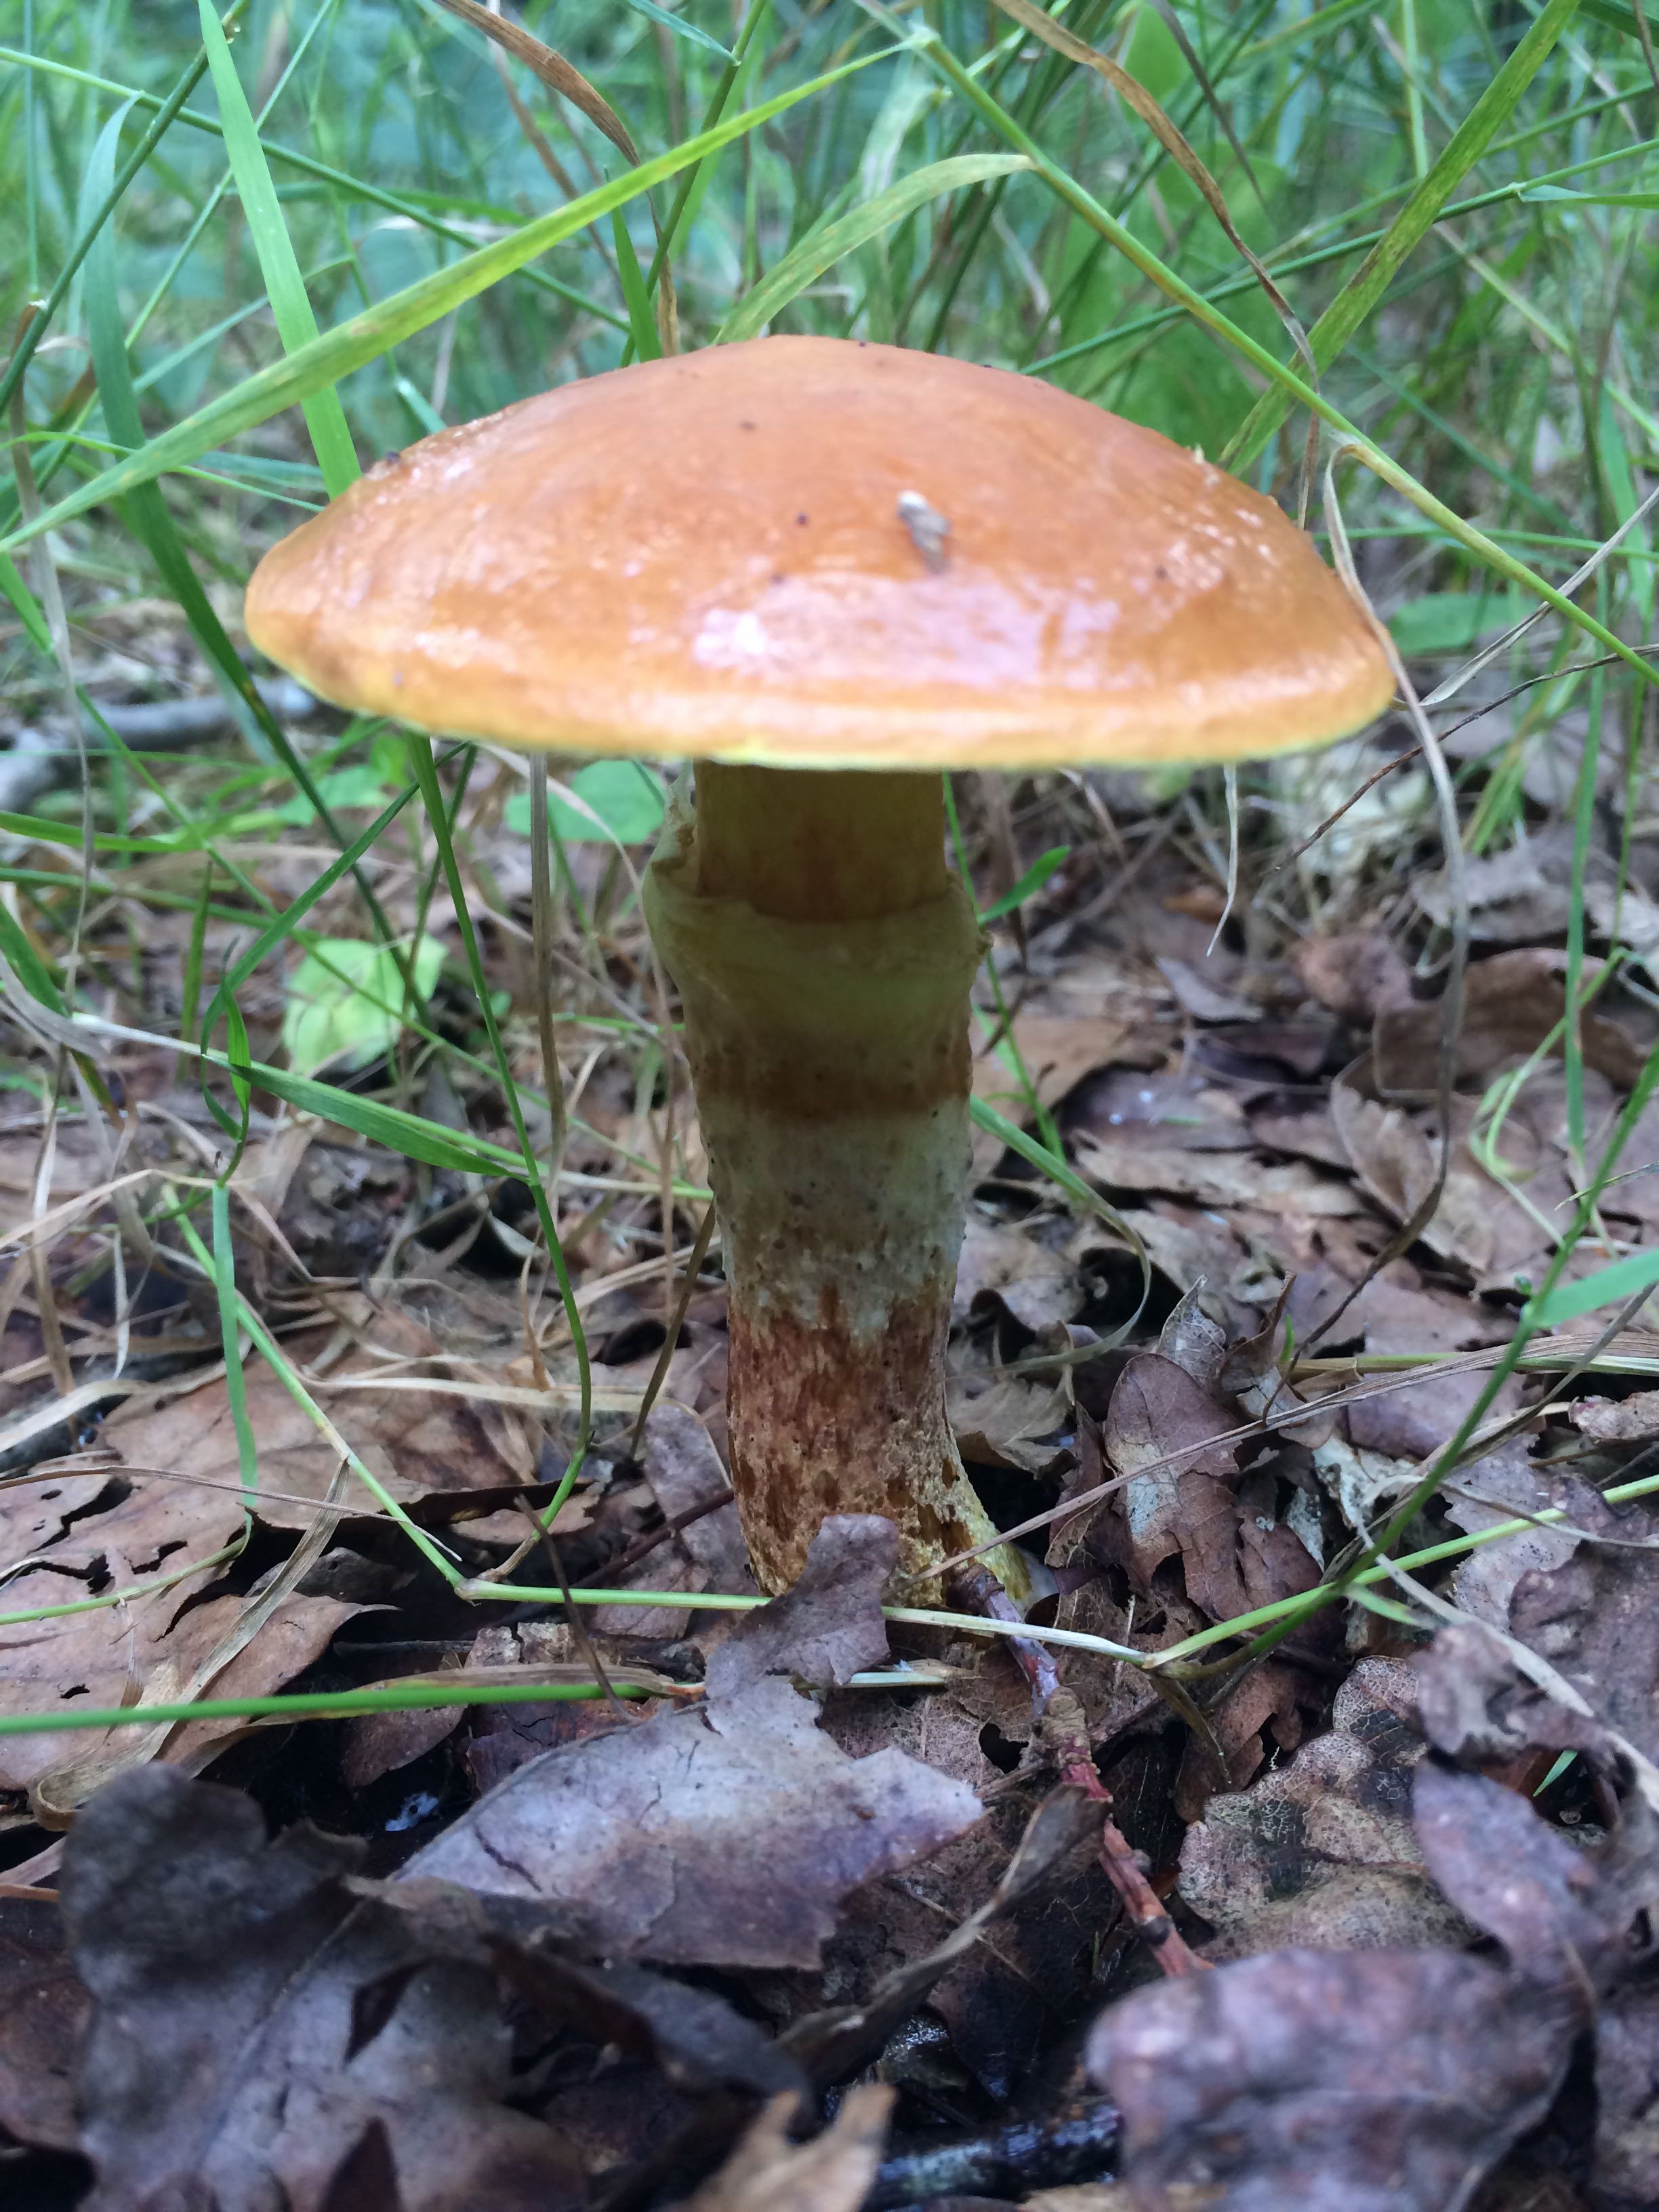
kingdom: Fungi
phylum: Basidiomycota
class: Agaricomycetes
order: Boletales
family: Suillaceae
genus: Suillus
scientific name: Suillus grevillei
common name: lærke-slimrørhat
